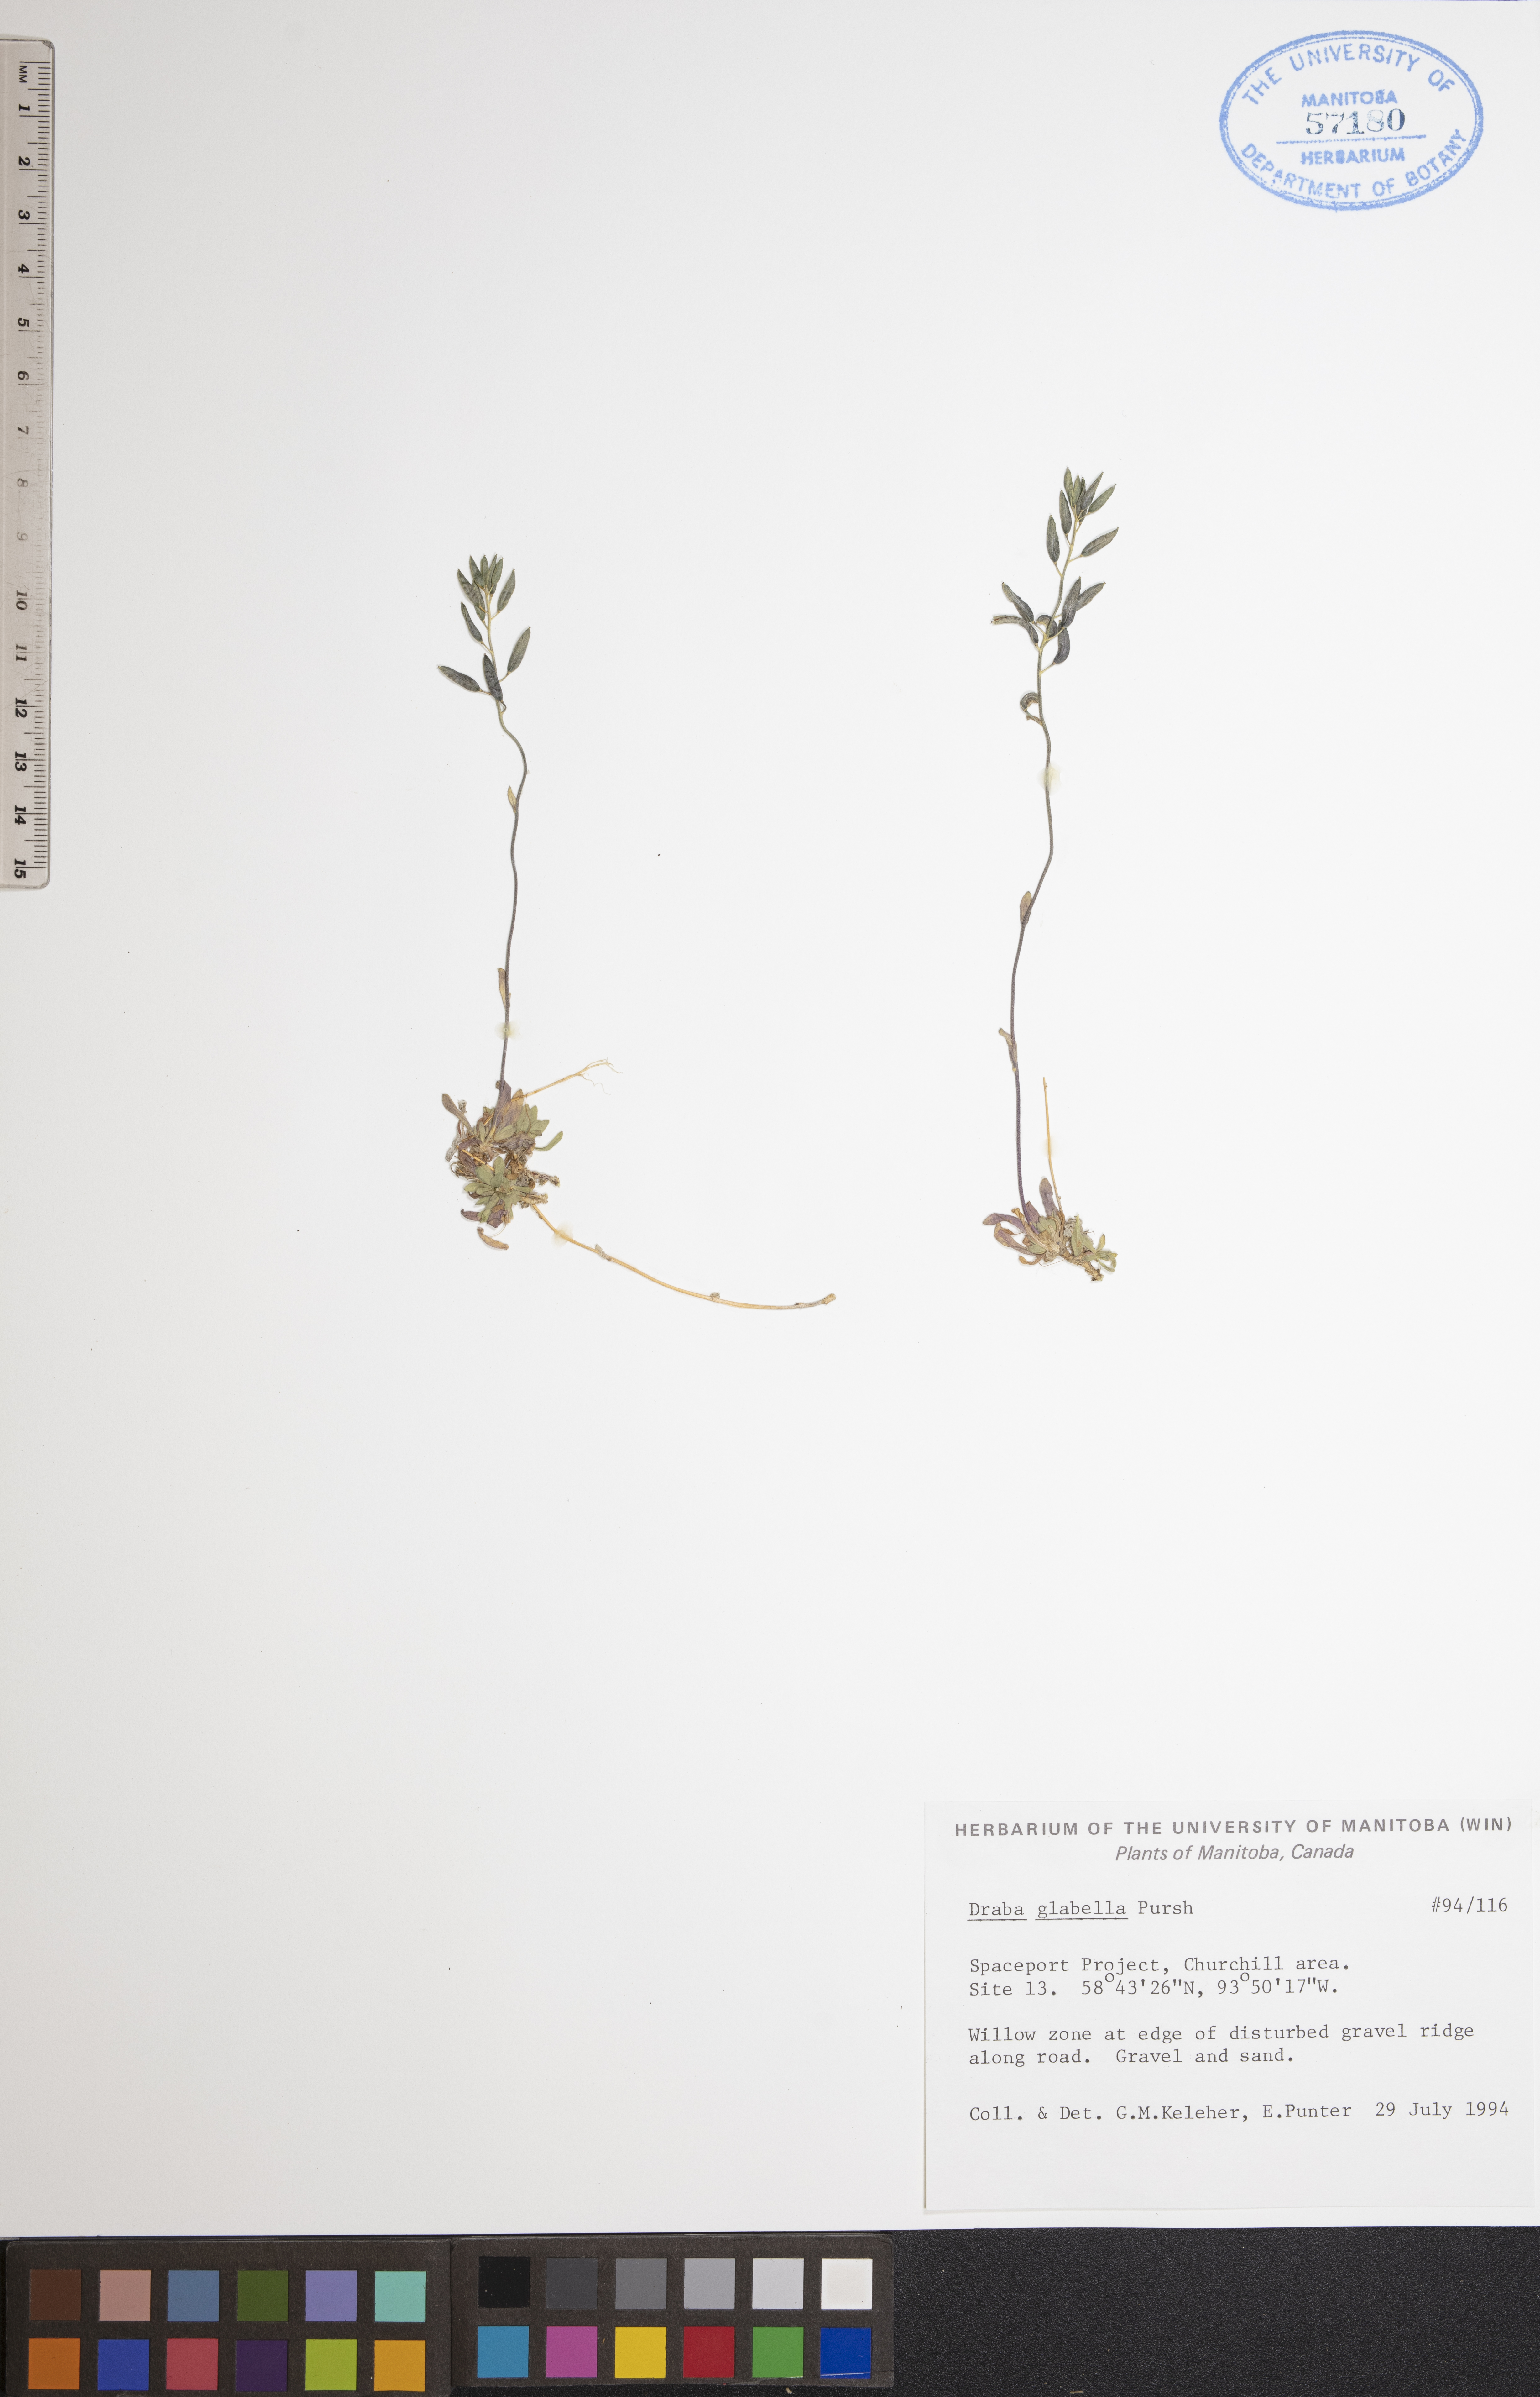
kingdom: Plantae
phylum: Tracheophyta
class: Magnoliopsida
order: Brassicales
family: Brassicaceae
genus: Draba
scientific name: Draba glabella
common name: Glaucous draba
